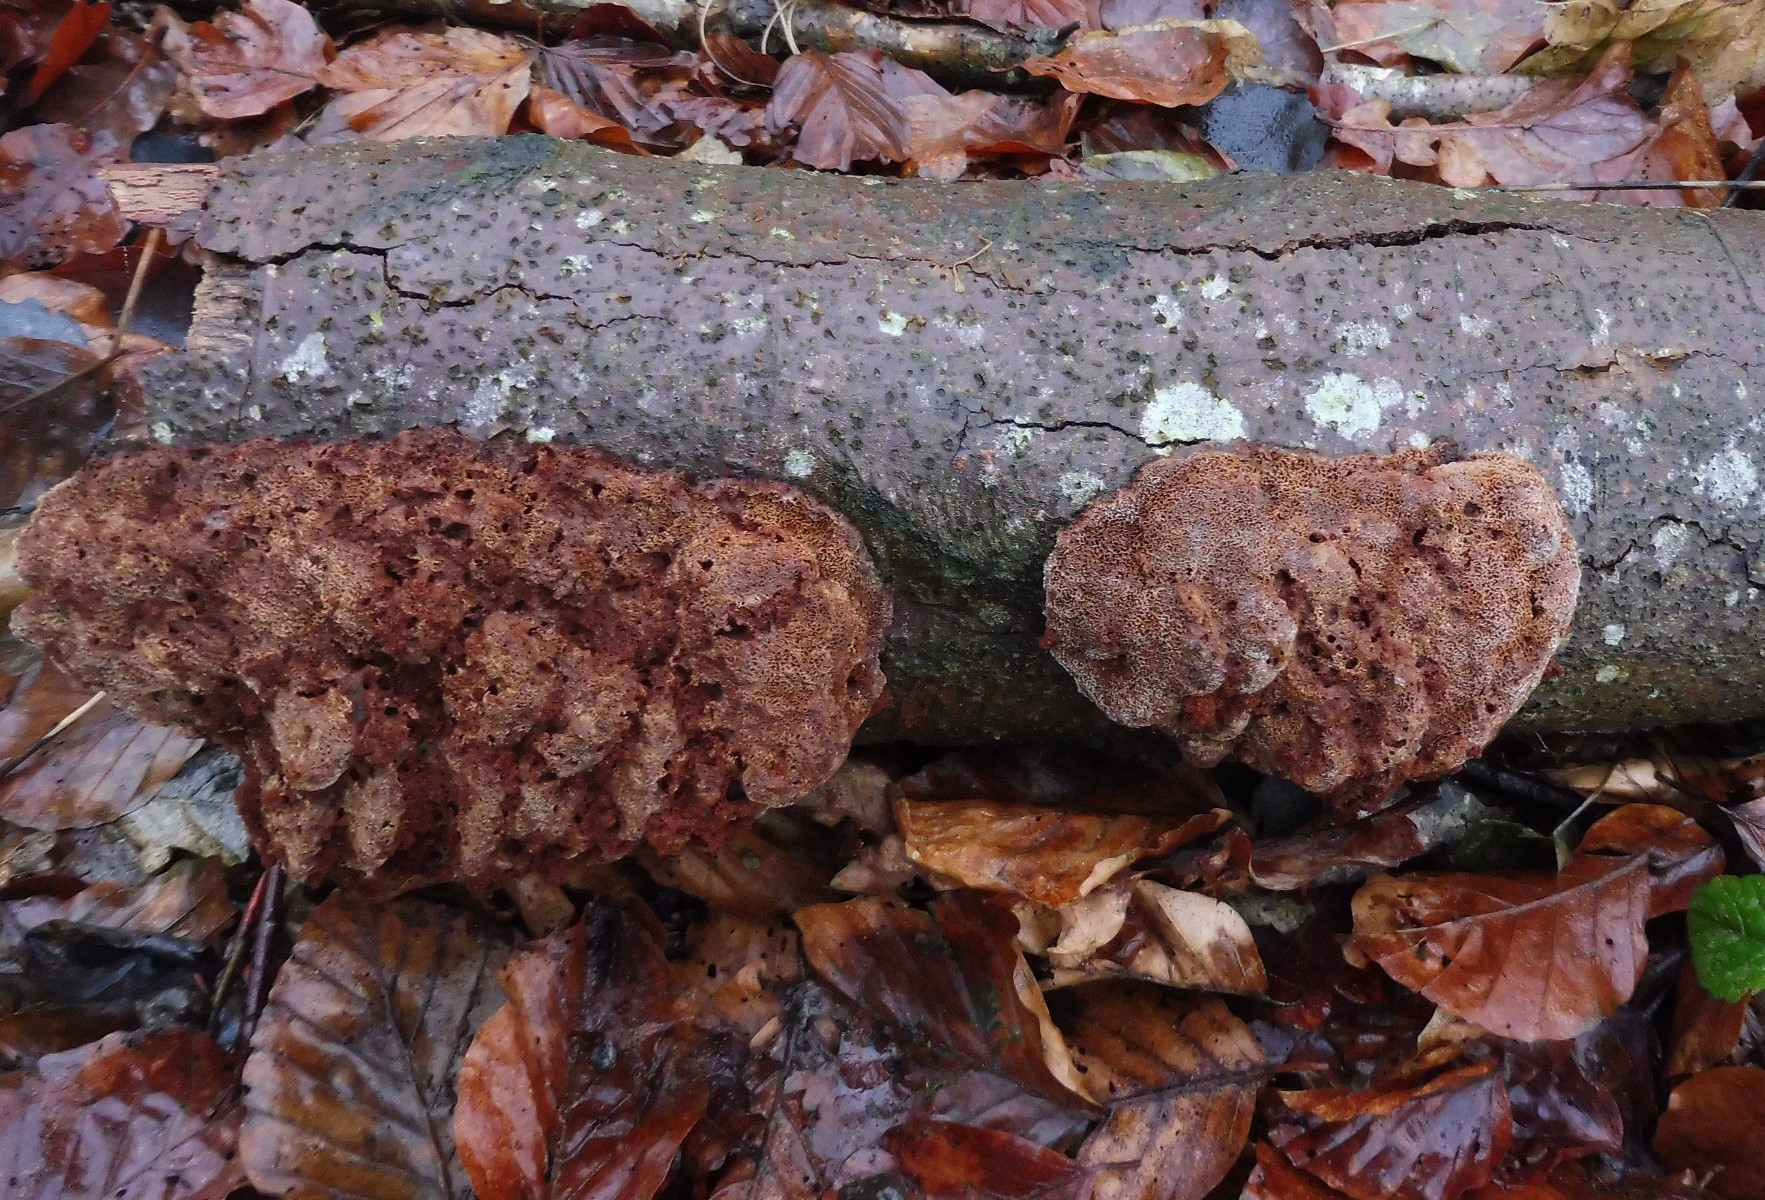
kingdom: Fungi
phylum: Basidiomycota
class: Agaricomycetes
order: Hymenochaetales
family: Hymenochaetaceae
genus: Mensularia
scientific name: Mensularia nodulosa
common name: bøge-spejlporesvamp
